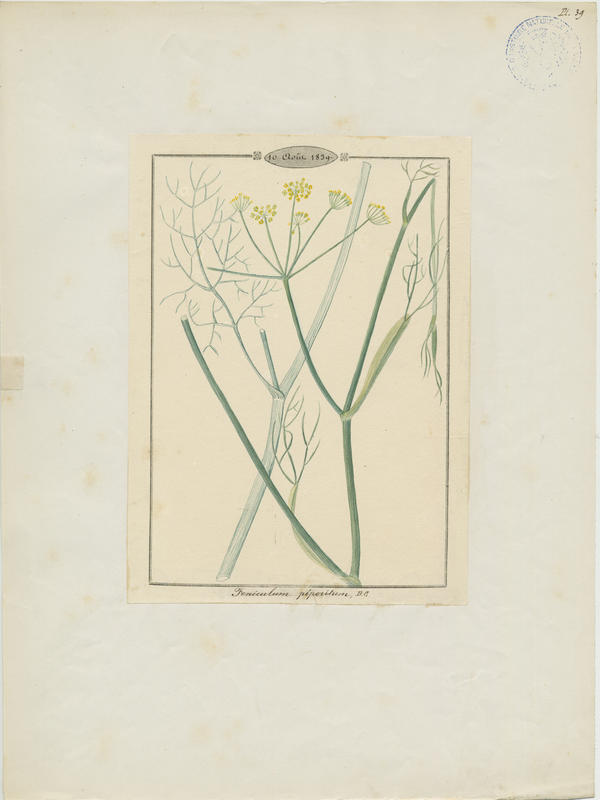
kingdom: Plantae
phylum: Tracheophyta
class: Magnoliopsida
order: Apiales
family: Apiaceae
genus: Foeniculum
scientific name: Foeniculum vulgare
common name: Fennel
